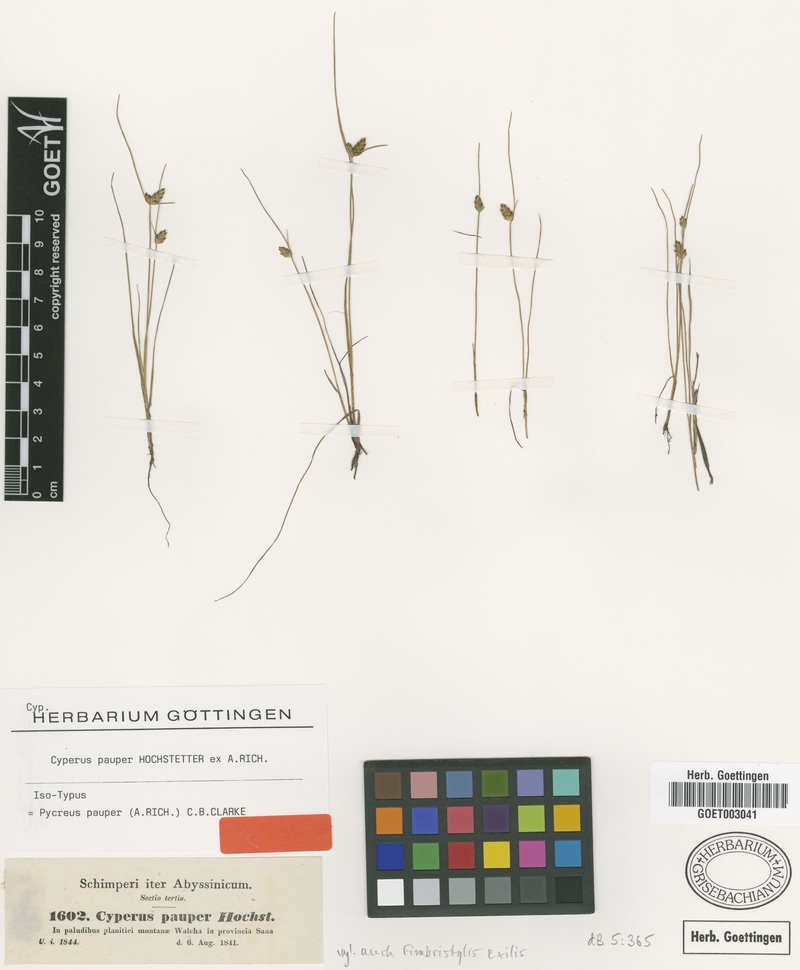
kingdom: Plantae
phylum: Tracheophyta
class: Liliopsida
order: Poales
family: Cyperaceae
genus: Cyperus
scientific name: Cyperus pauper
